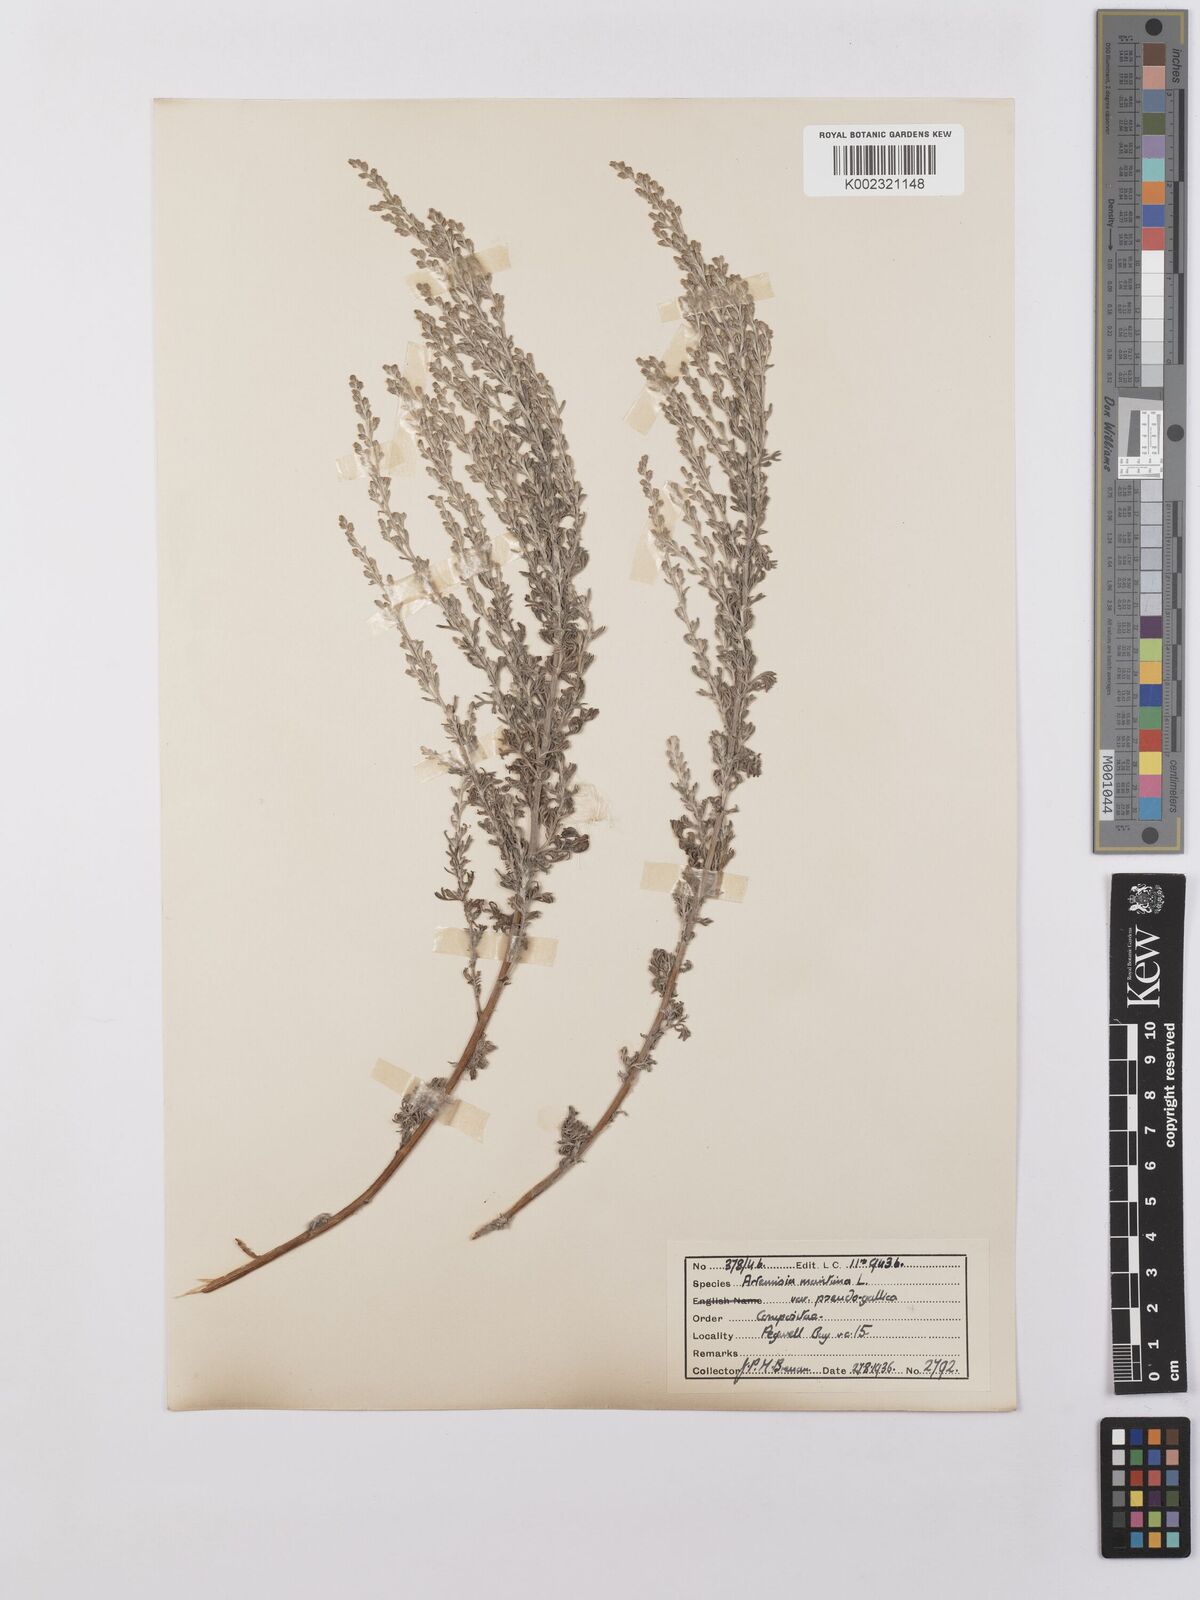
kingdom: Plantae
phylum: Tracheophyta
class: Magnoliopsida
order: Asterales
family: Asteraceae
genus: Artemisia
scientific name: Artemisia maritima
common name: Wormseed
